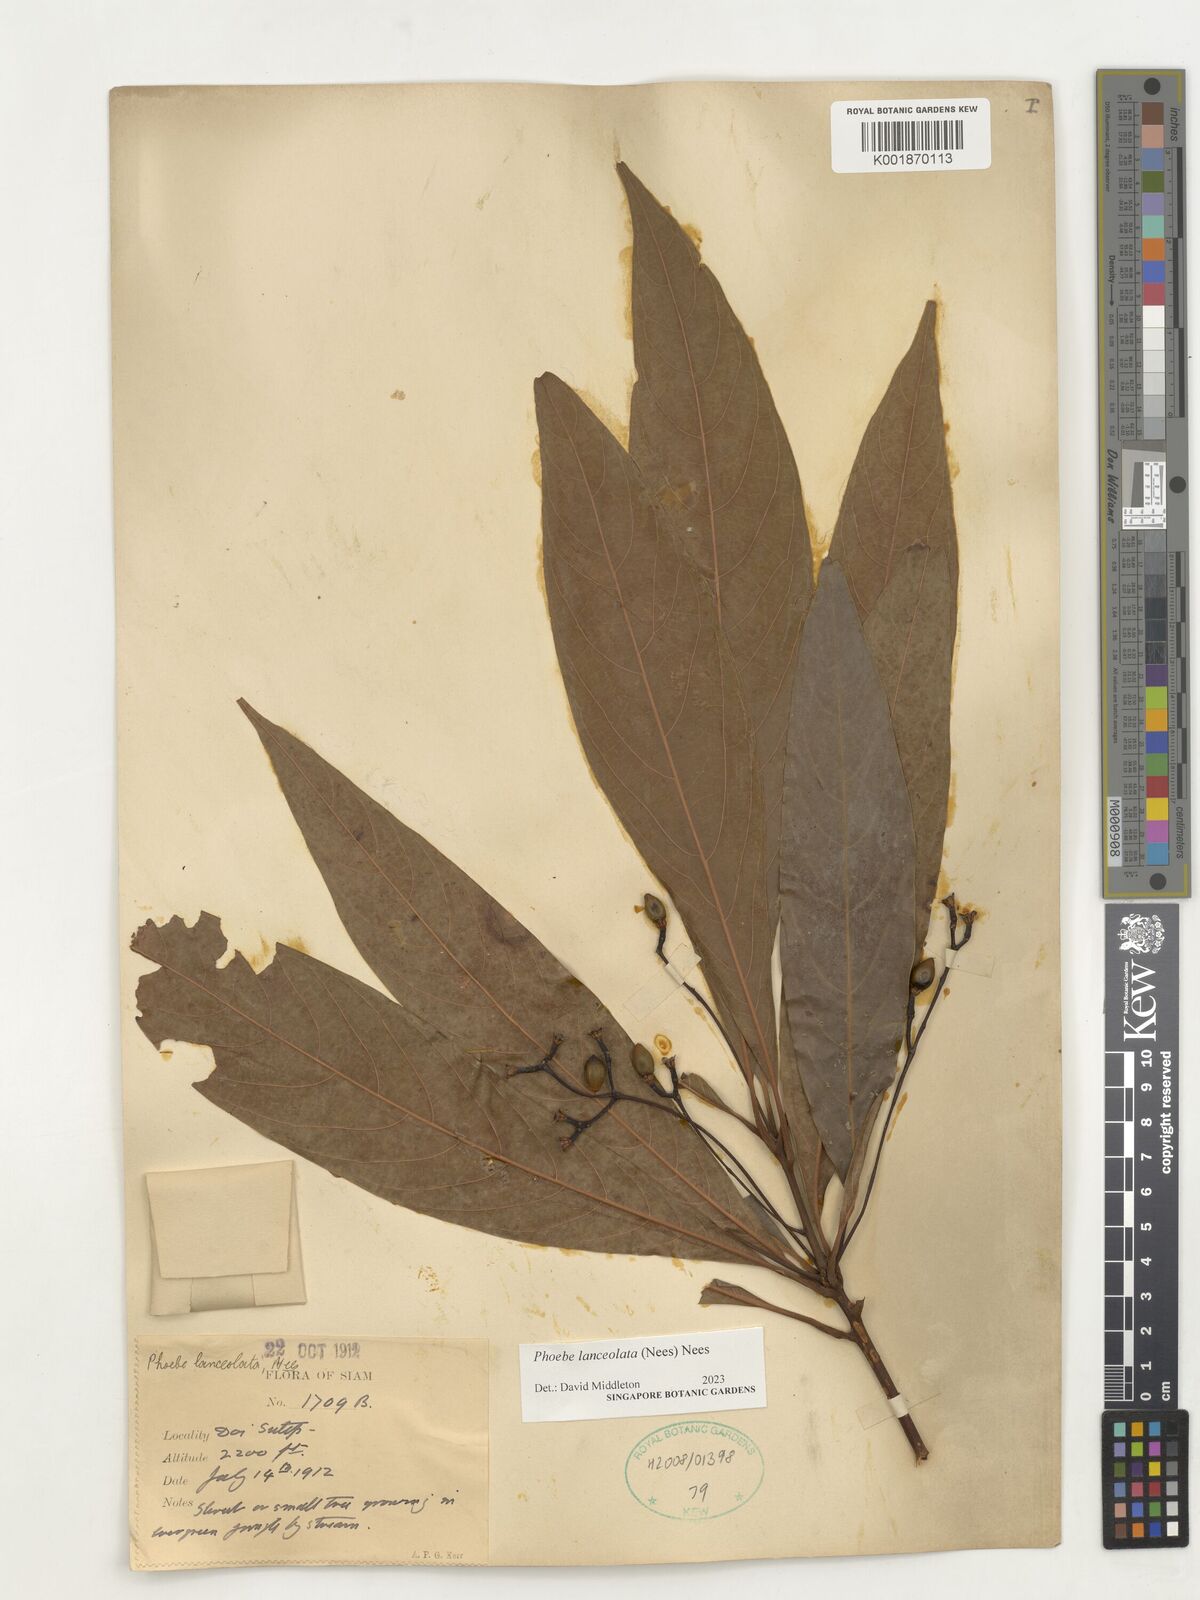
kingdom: Plantae
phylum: Tracheophyta
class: Magnoliopsida
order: Laurales
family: Lauraceae
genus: Phoebe
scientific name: Phoebe lanceolata
